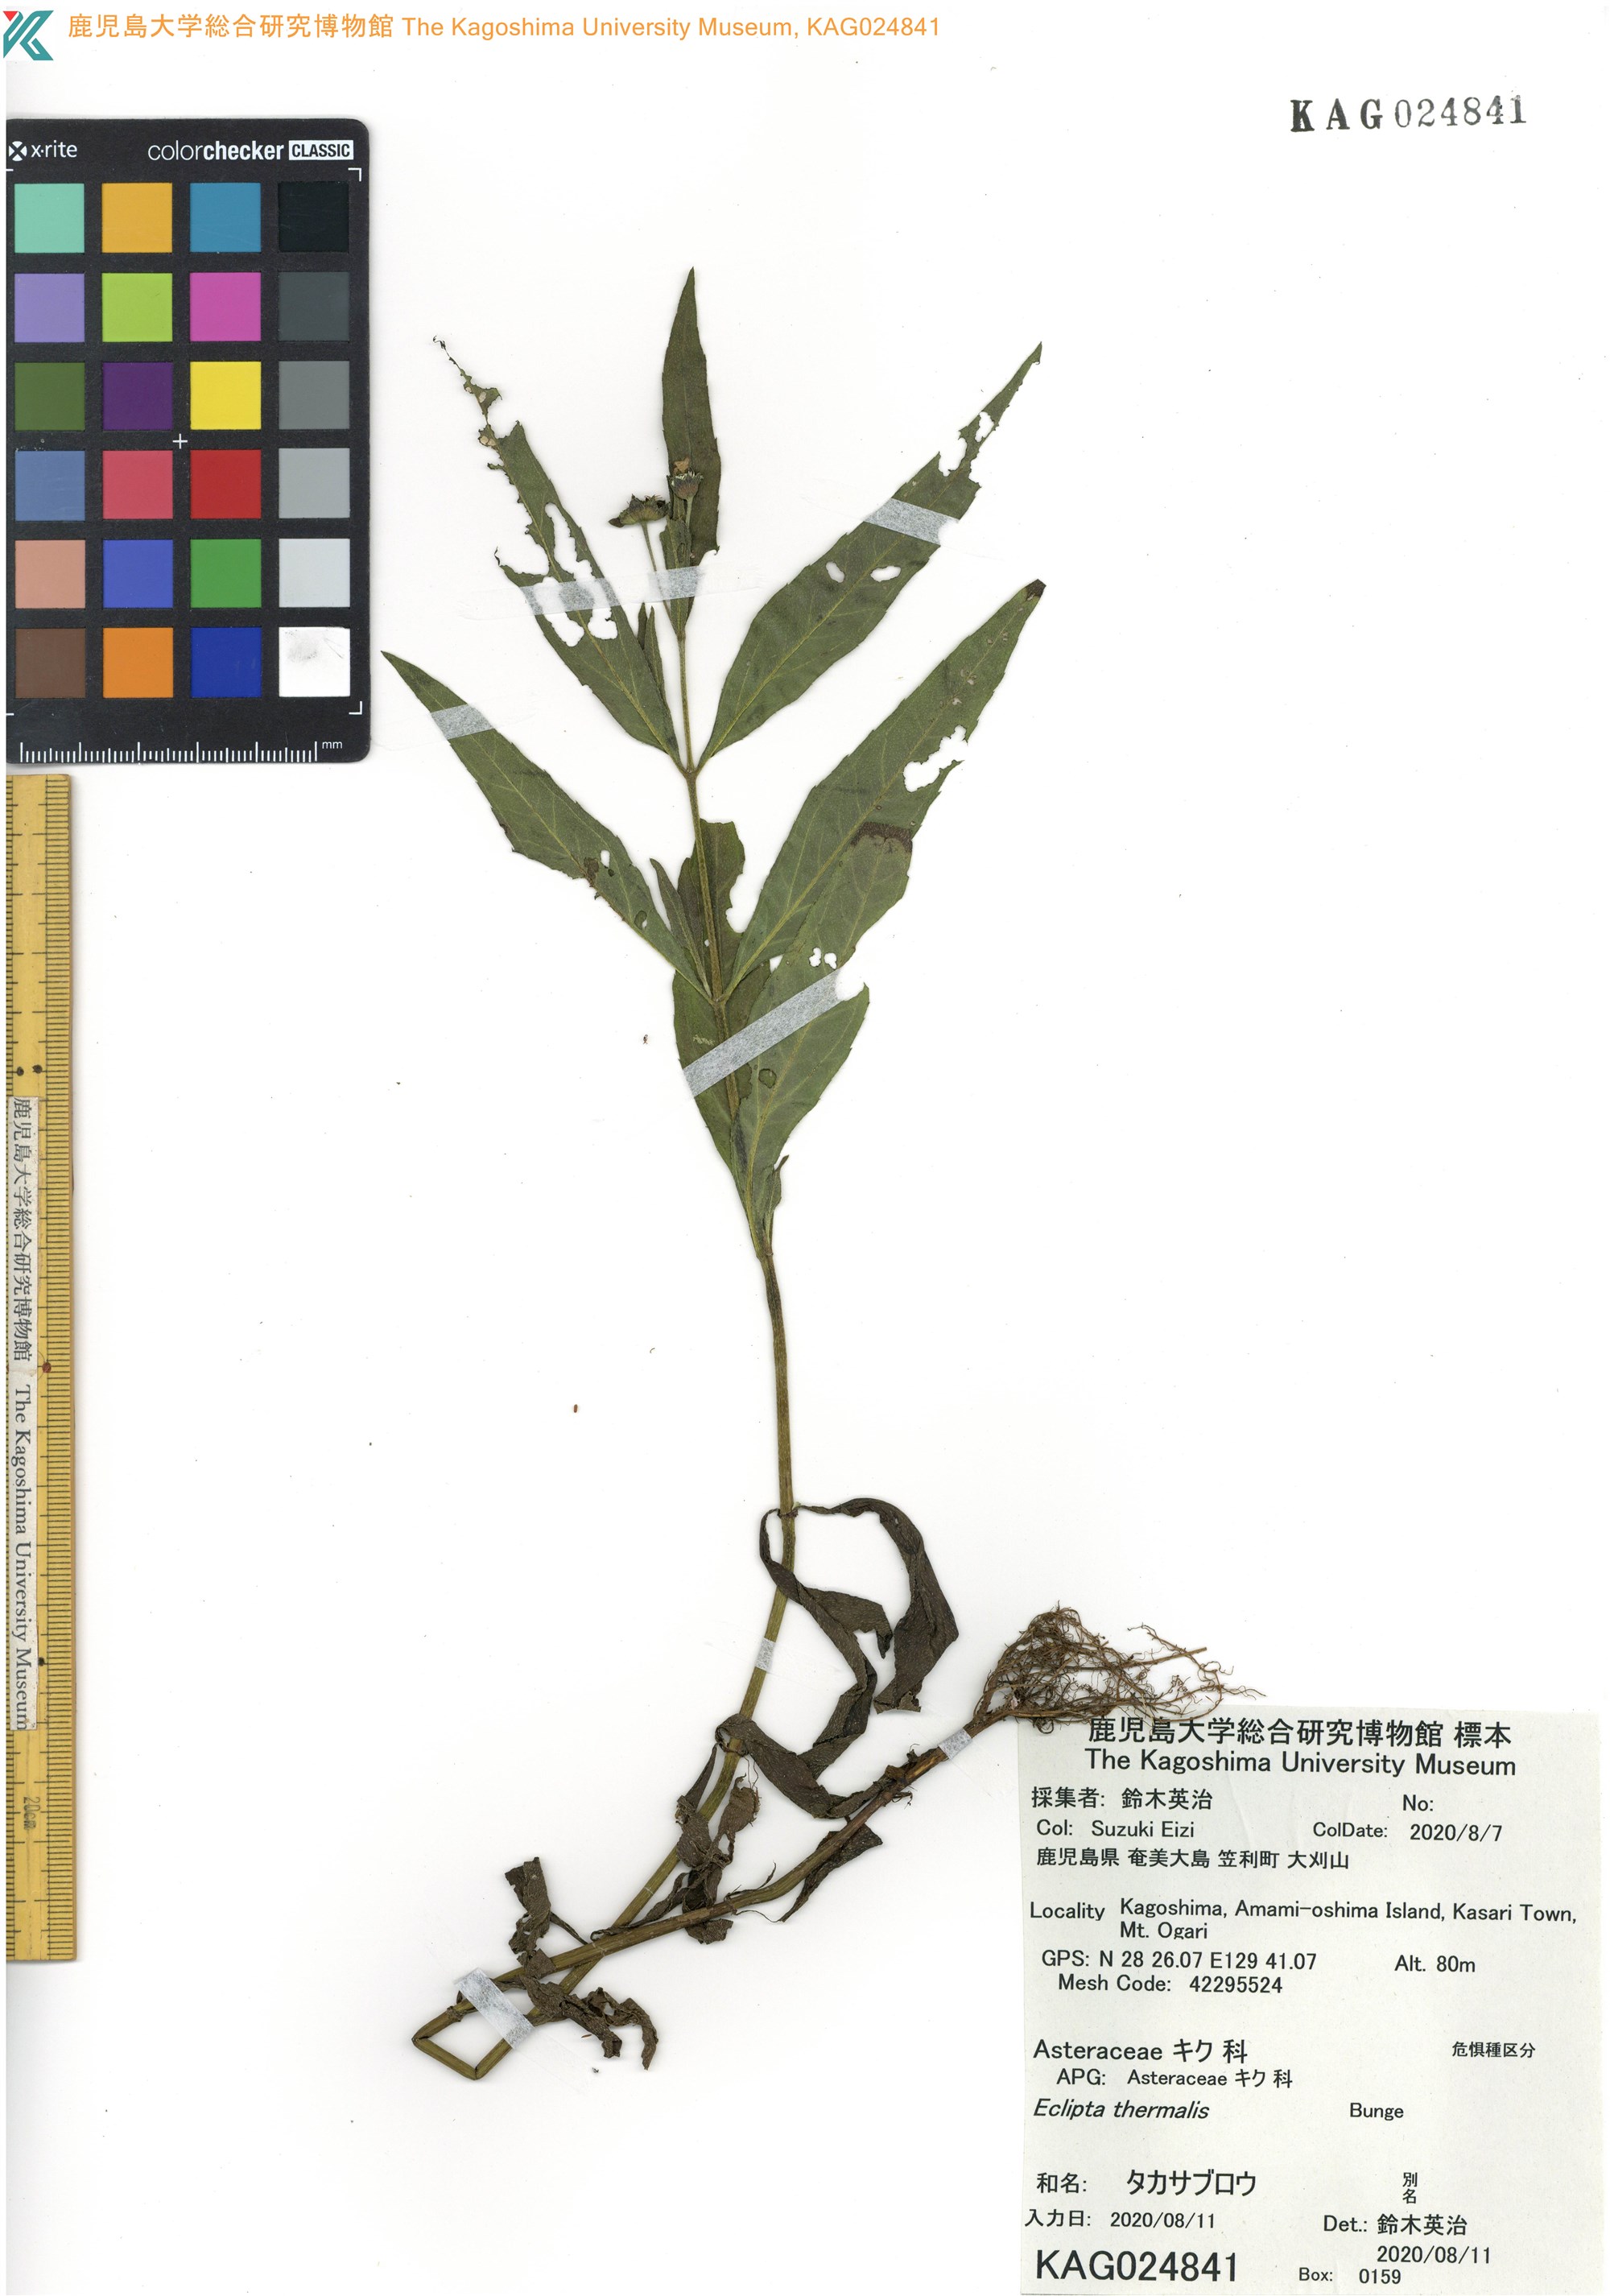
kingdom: Plantae
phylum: Tracheophyta
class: Magnoliopsida
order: Asterales
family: Asteraceae
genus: Eclipta
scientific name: Eclipta thermalis
